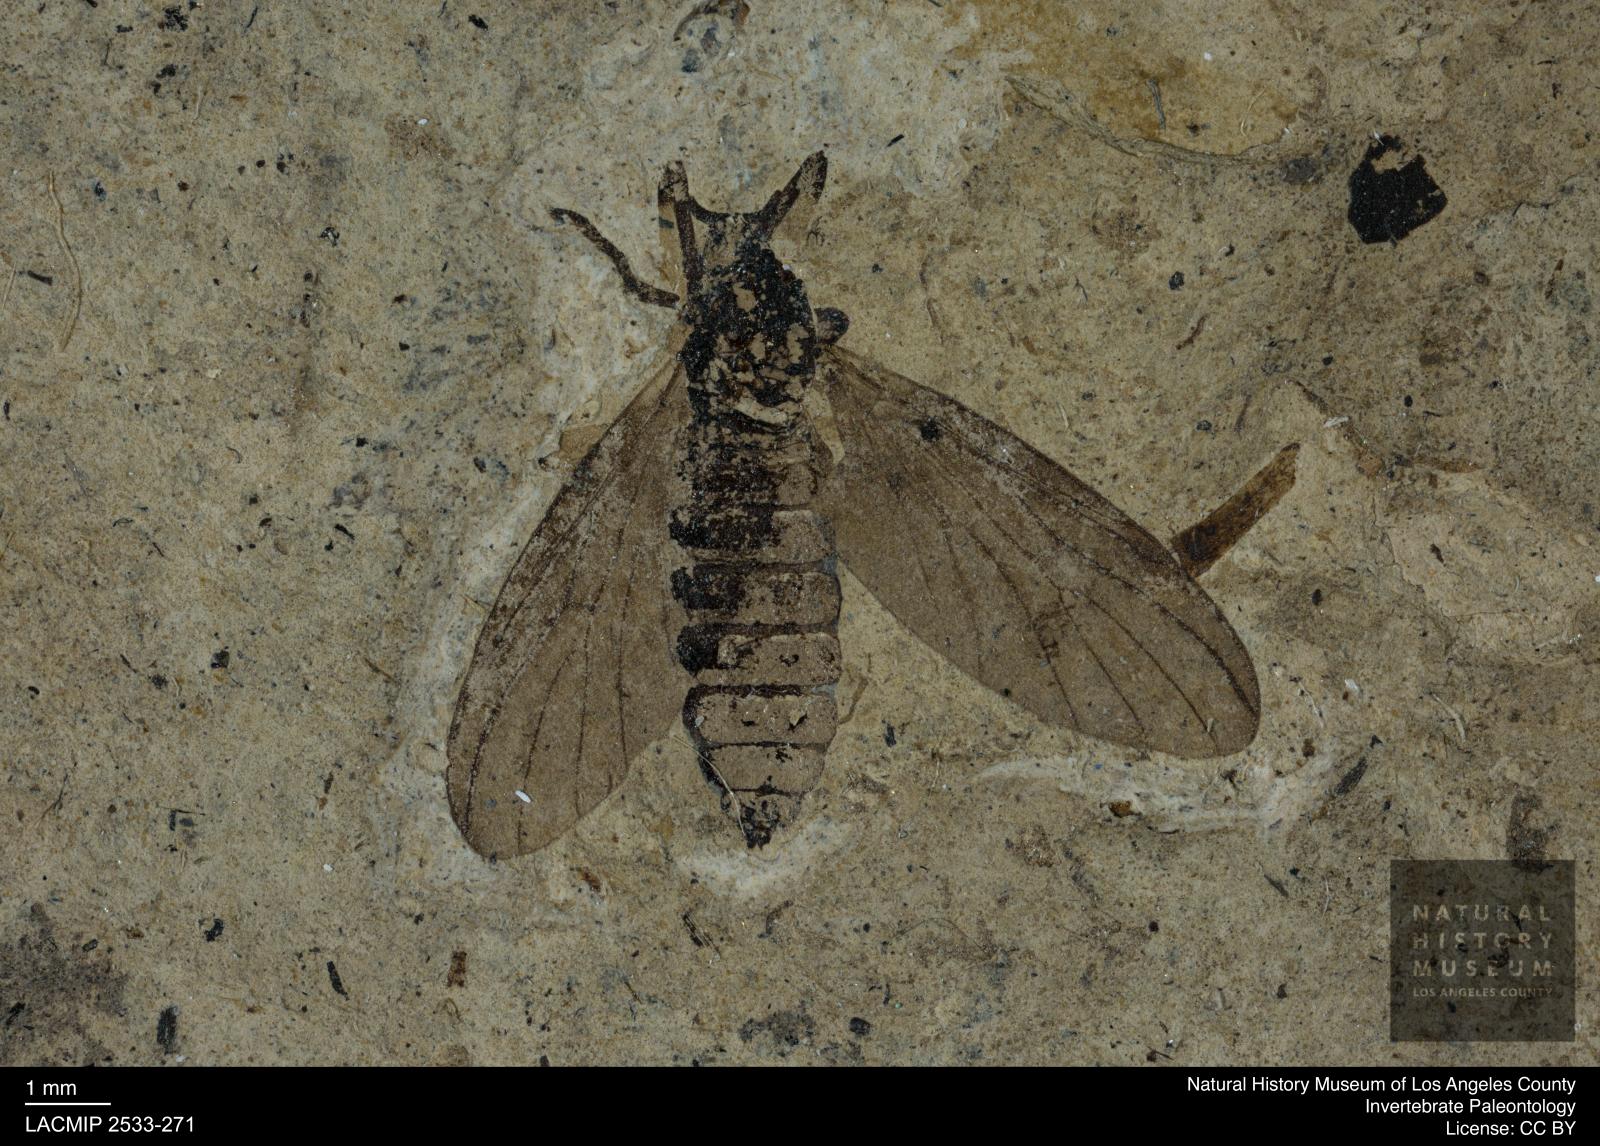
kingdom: Animalia
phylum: Arthropoda
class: Insecta
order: Diptera
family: Bibionidae
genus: Plecia
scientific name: Plecia hypogaea
